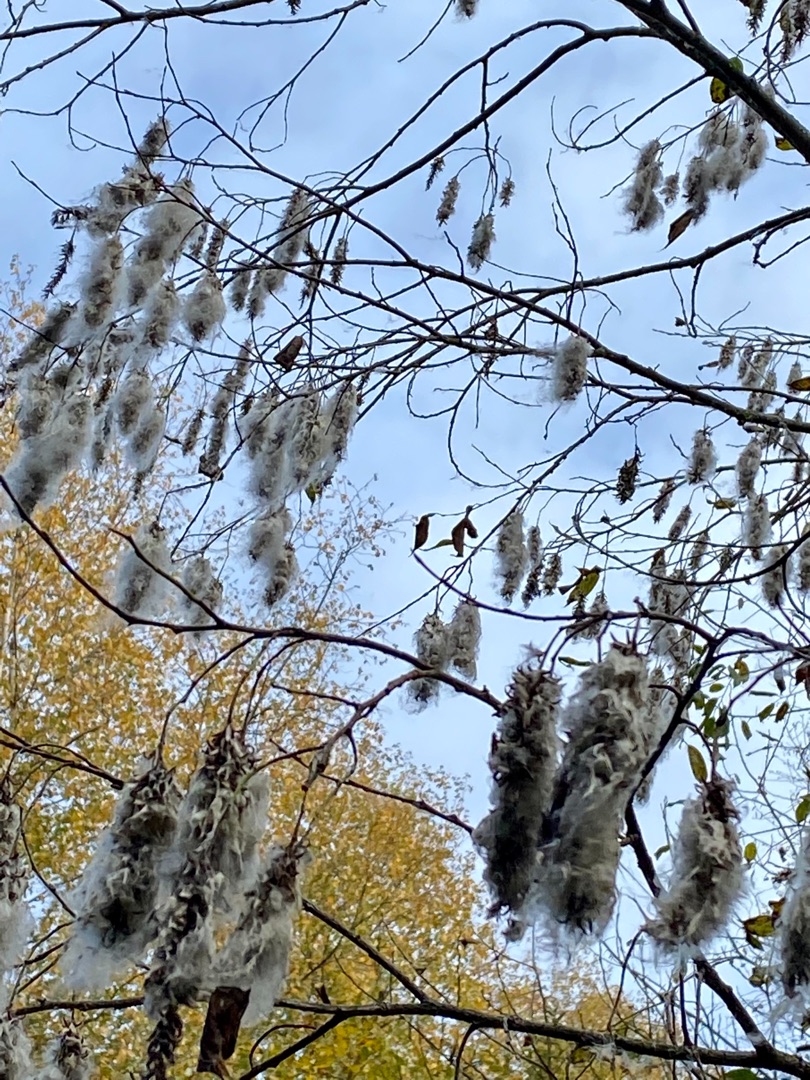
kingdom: Plantae
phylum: Tracheophyta
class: Magnoliopsida
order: Malpighiales
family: Salicaceae
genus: Salix
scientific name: Salix
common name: Pileslægten
